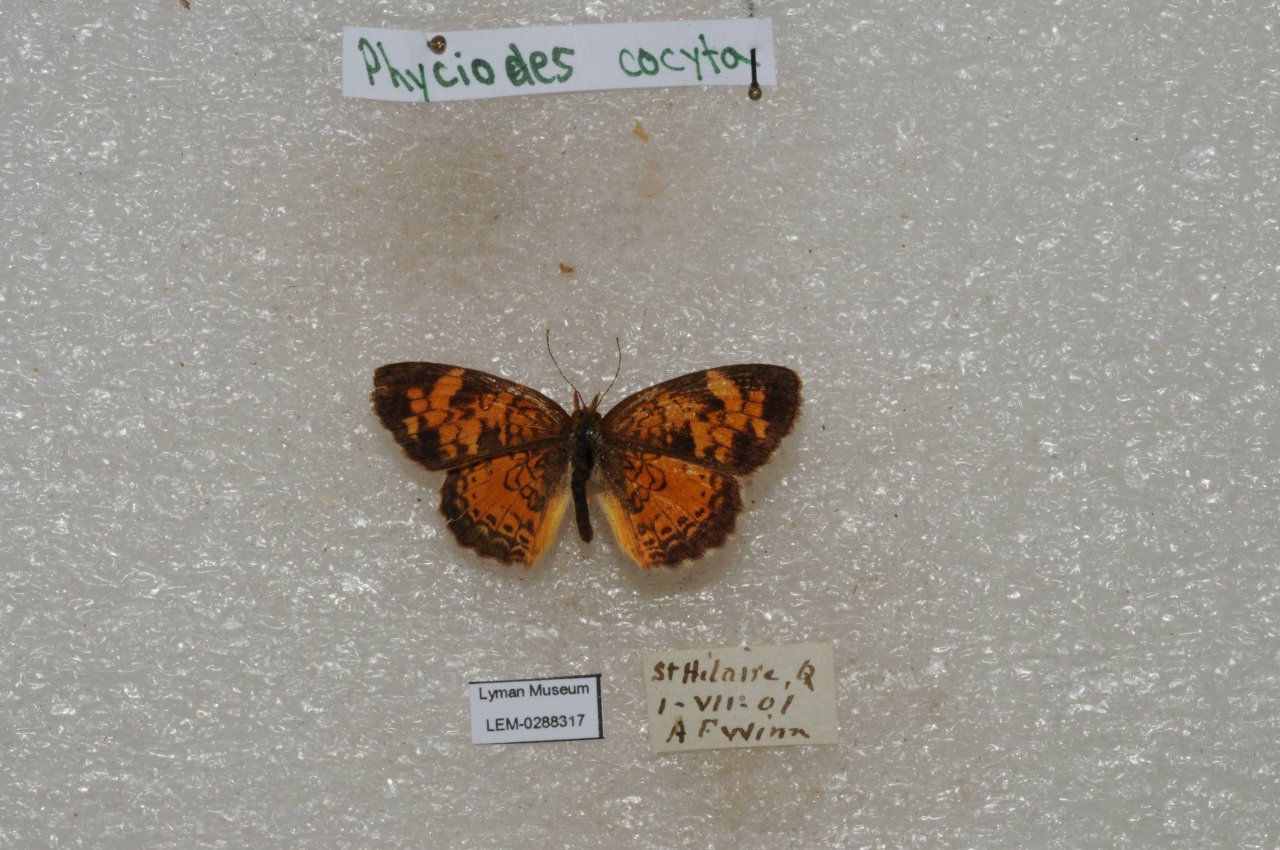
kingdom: Animalia
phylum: Arthropoda
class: Insecta
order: Lepidoptera
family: Nymphalidae
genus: Phyciodes
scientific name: Phyciodes tharos
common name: Northern Crescent
